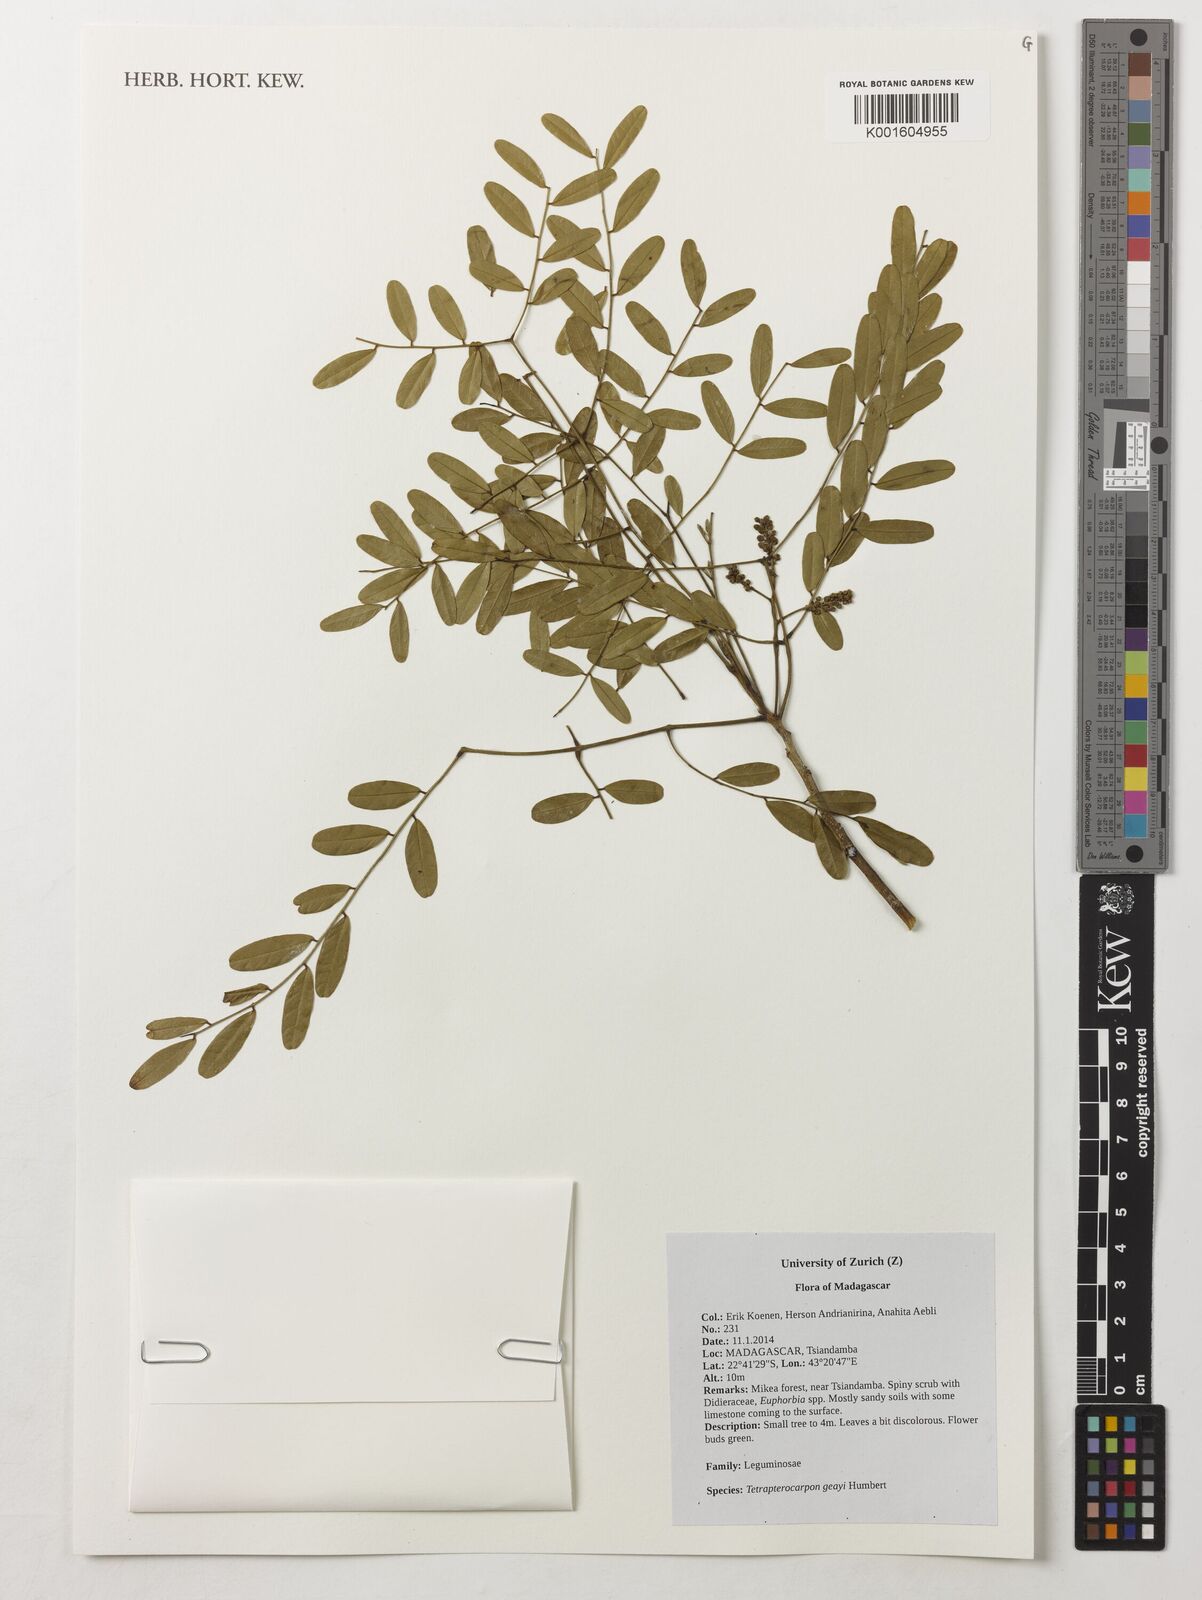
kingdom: Plantae
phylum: Tracheophyta
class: Magnoliopsida
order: Fabales
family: Fabaceae
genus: Tetrapterocarpon
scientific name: Tetrapterocarpon geayi
